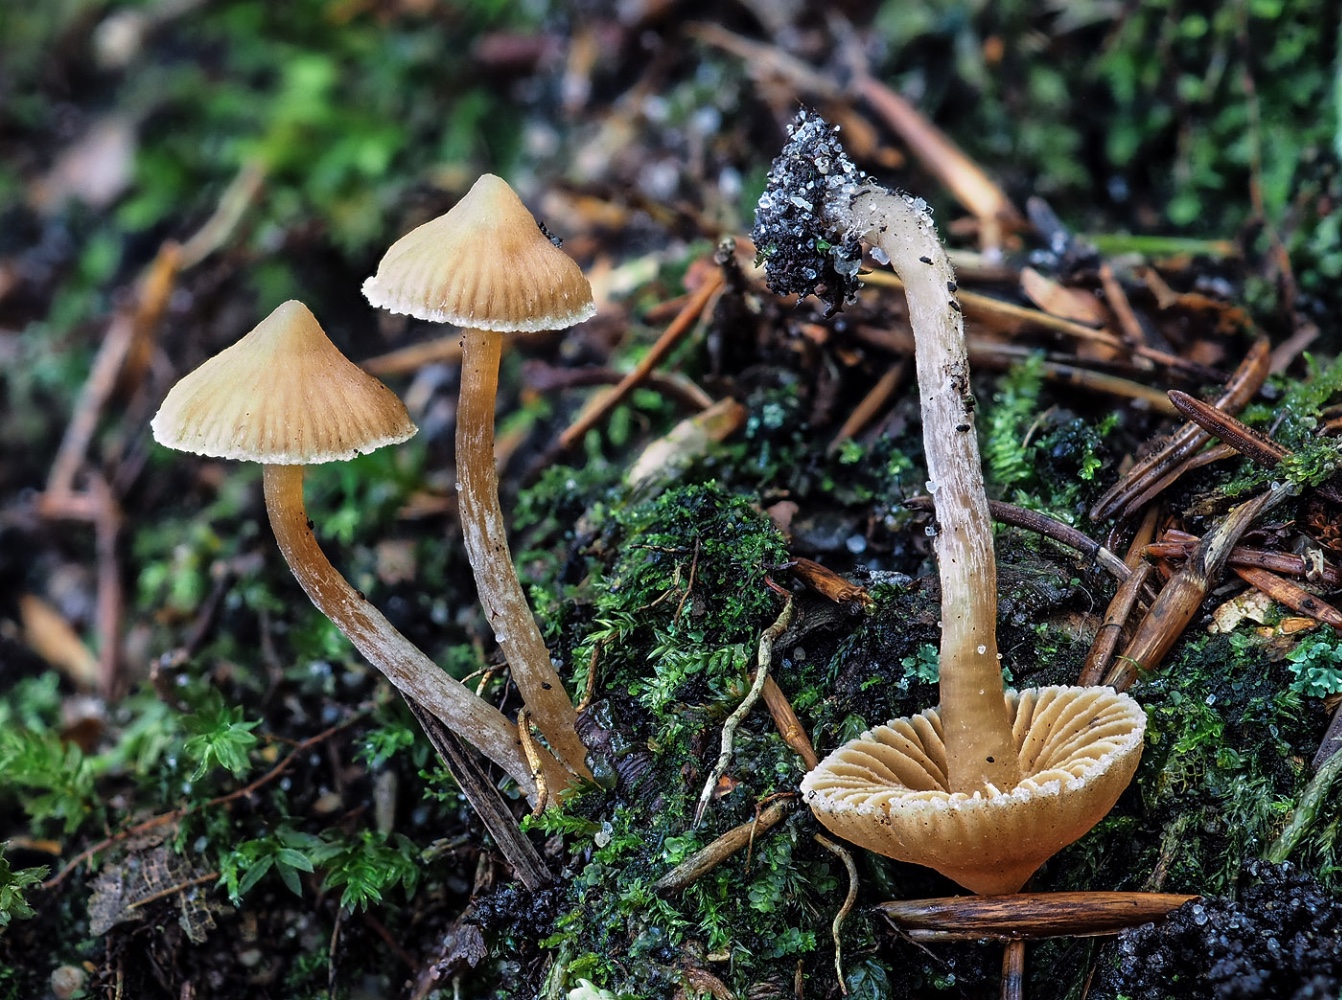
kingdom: Fungi
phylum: Basidiomycota
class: Agaricomycetes
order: Agaricales
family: Cortinariaceae
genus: Cortinarius
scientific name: Cortinarius acutus
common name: spids slørhat
